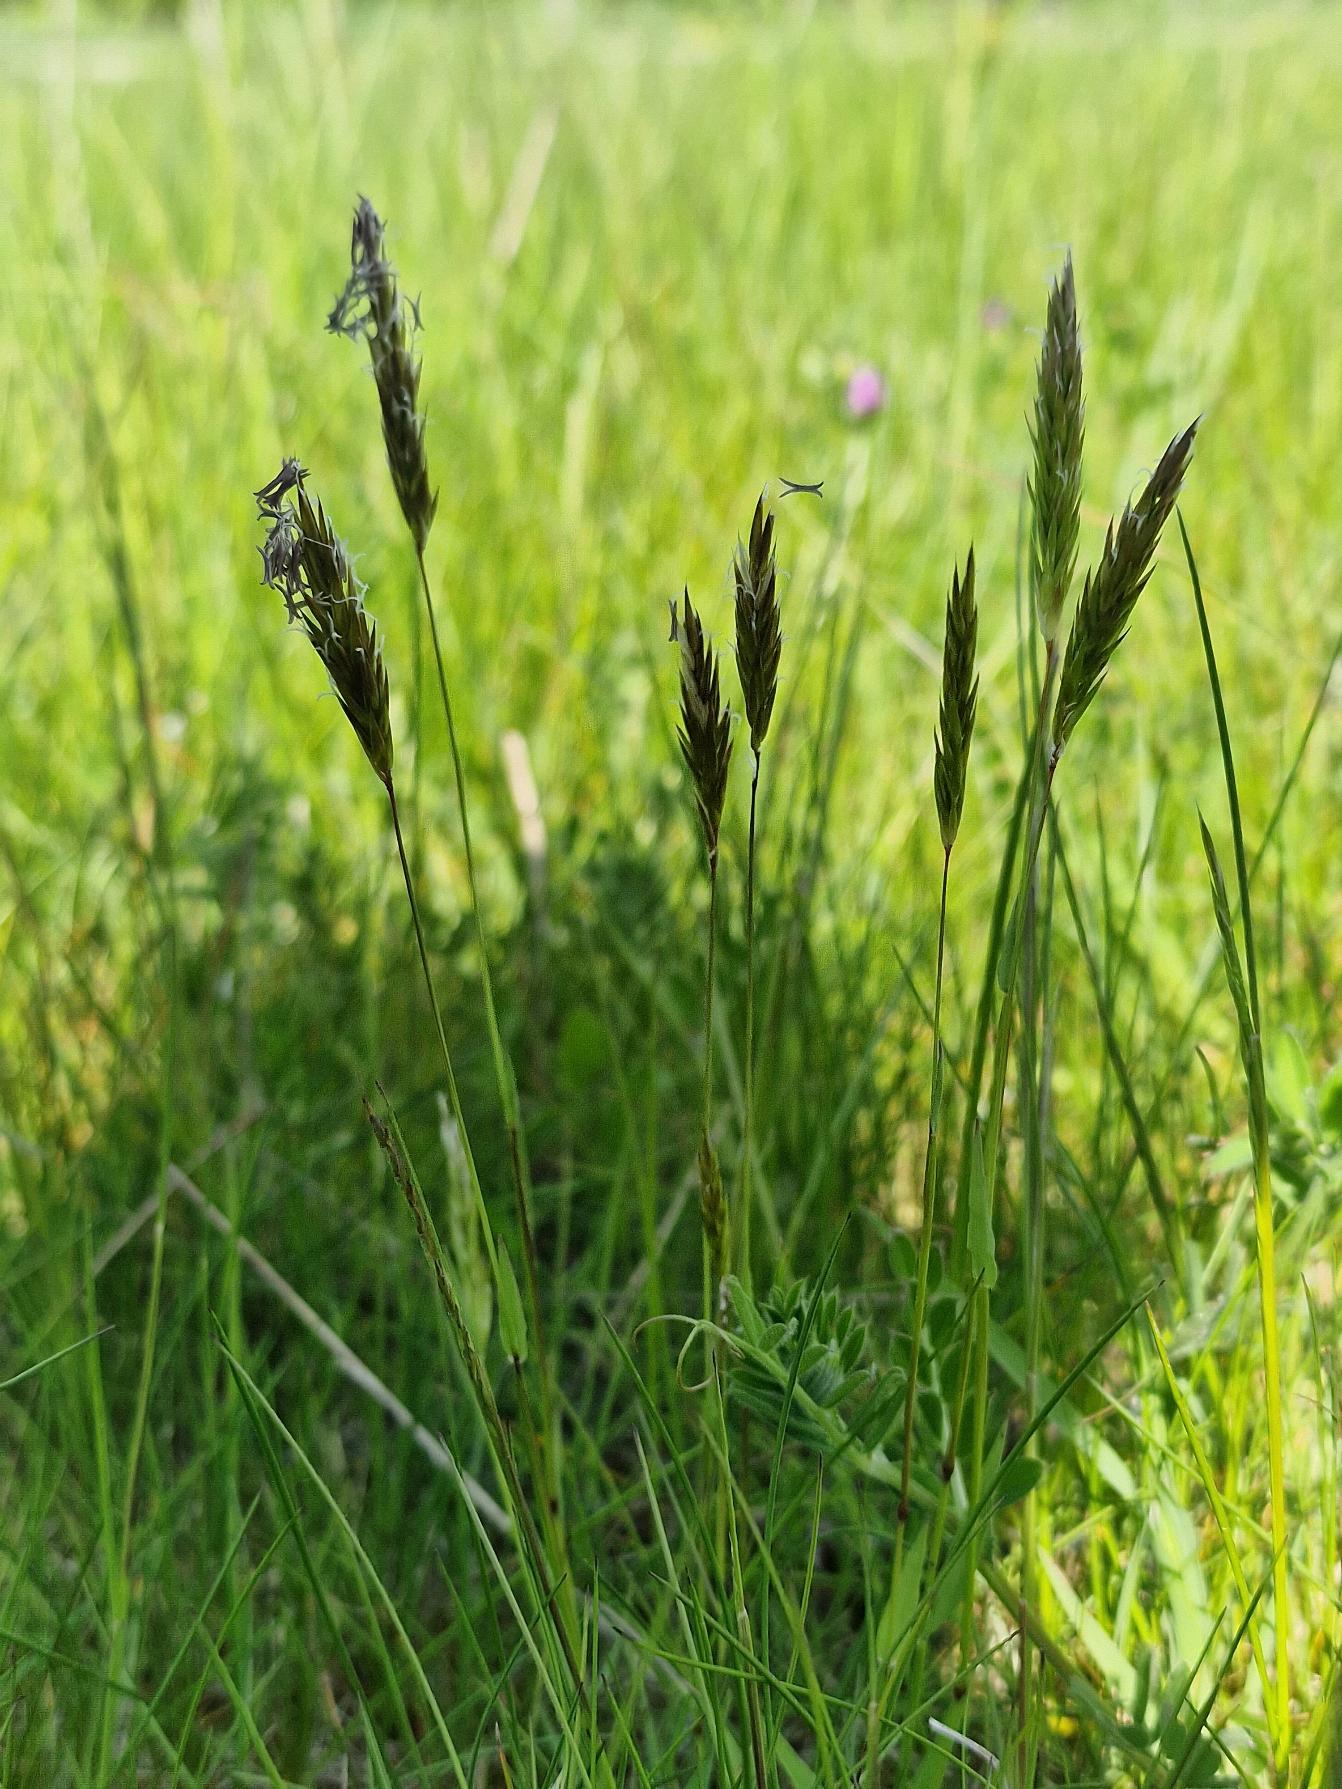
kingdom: Plantae
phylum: Tracheophyta
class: Liliopsida
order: Poales
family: Poaceae
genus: Anthoxanthum
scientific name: Anthoxanthum odoratum
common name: Vellugtende gulaks
